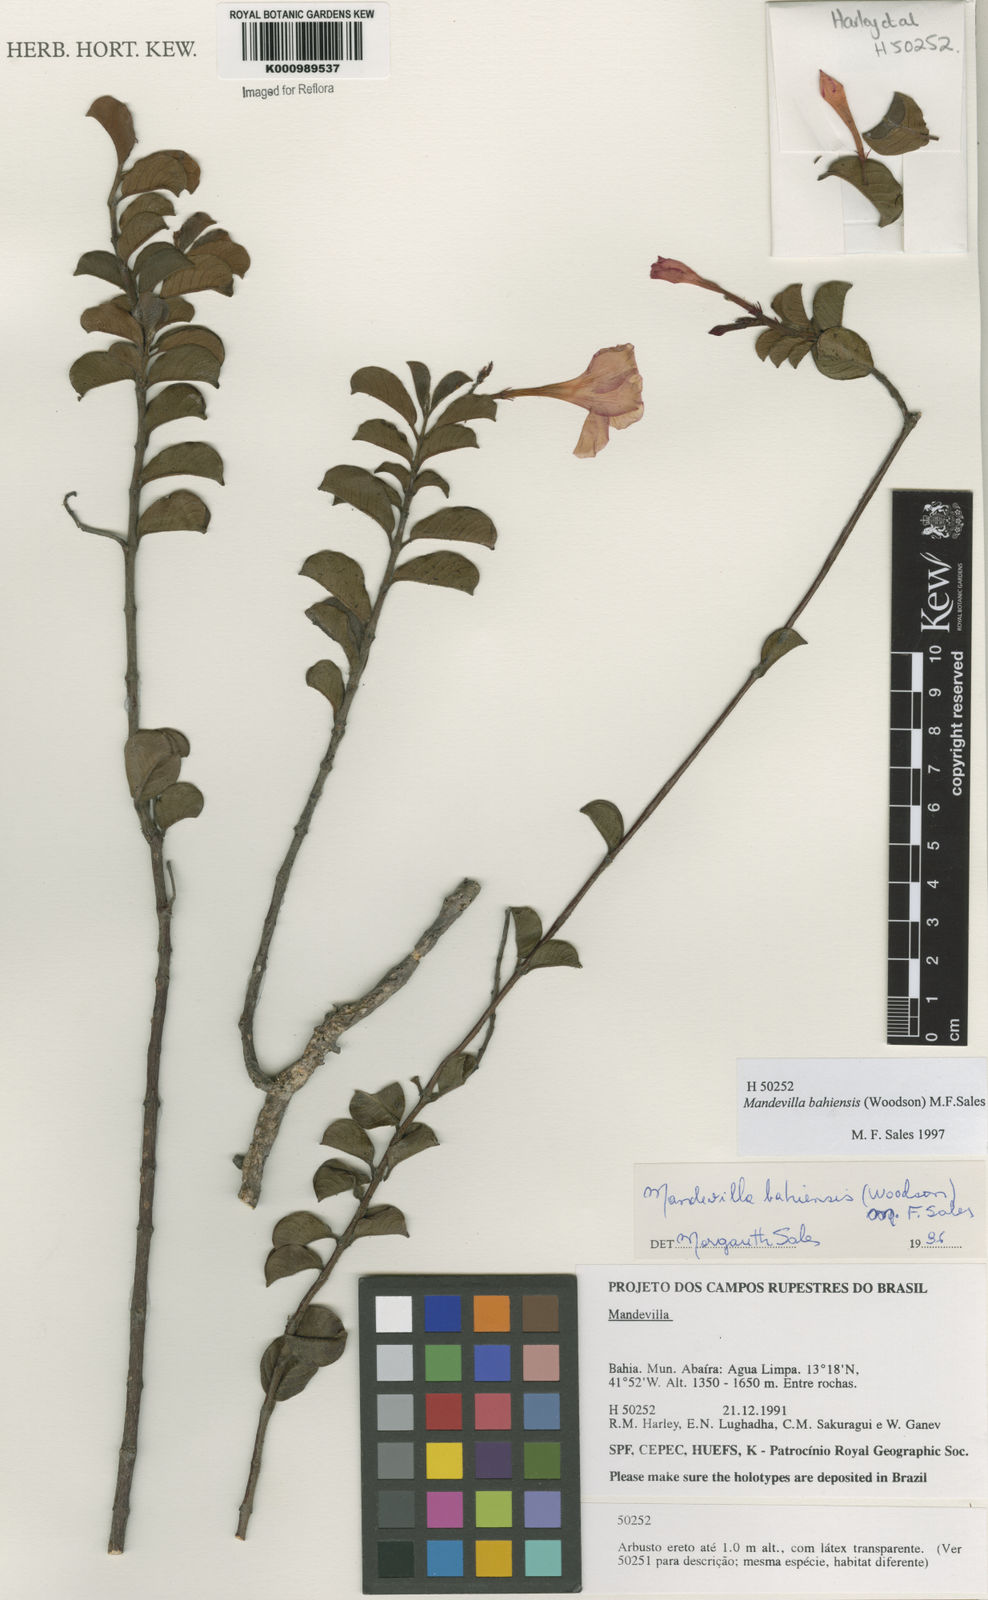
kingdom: Plantae
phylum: Tracheophyta
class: Magnoliopsida
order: Gentianales
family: Apocynaceae
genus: Mandevilla
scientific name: Mandevilla bahiensis
